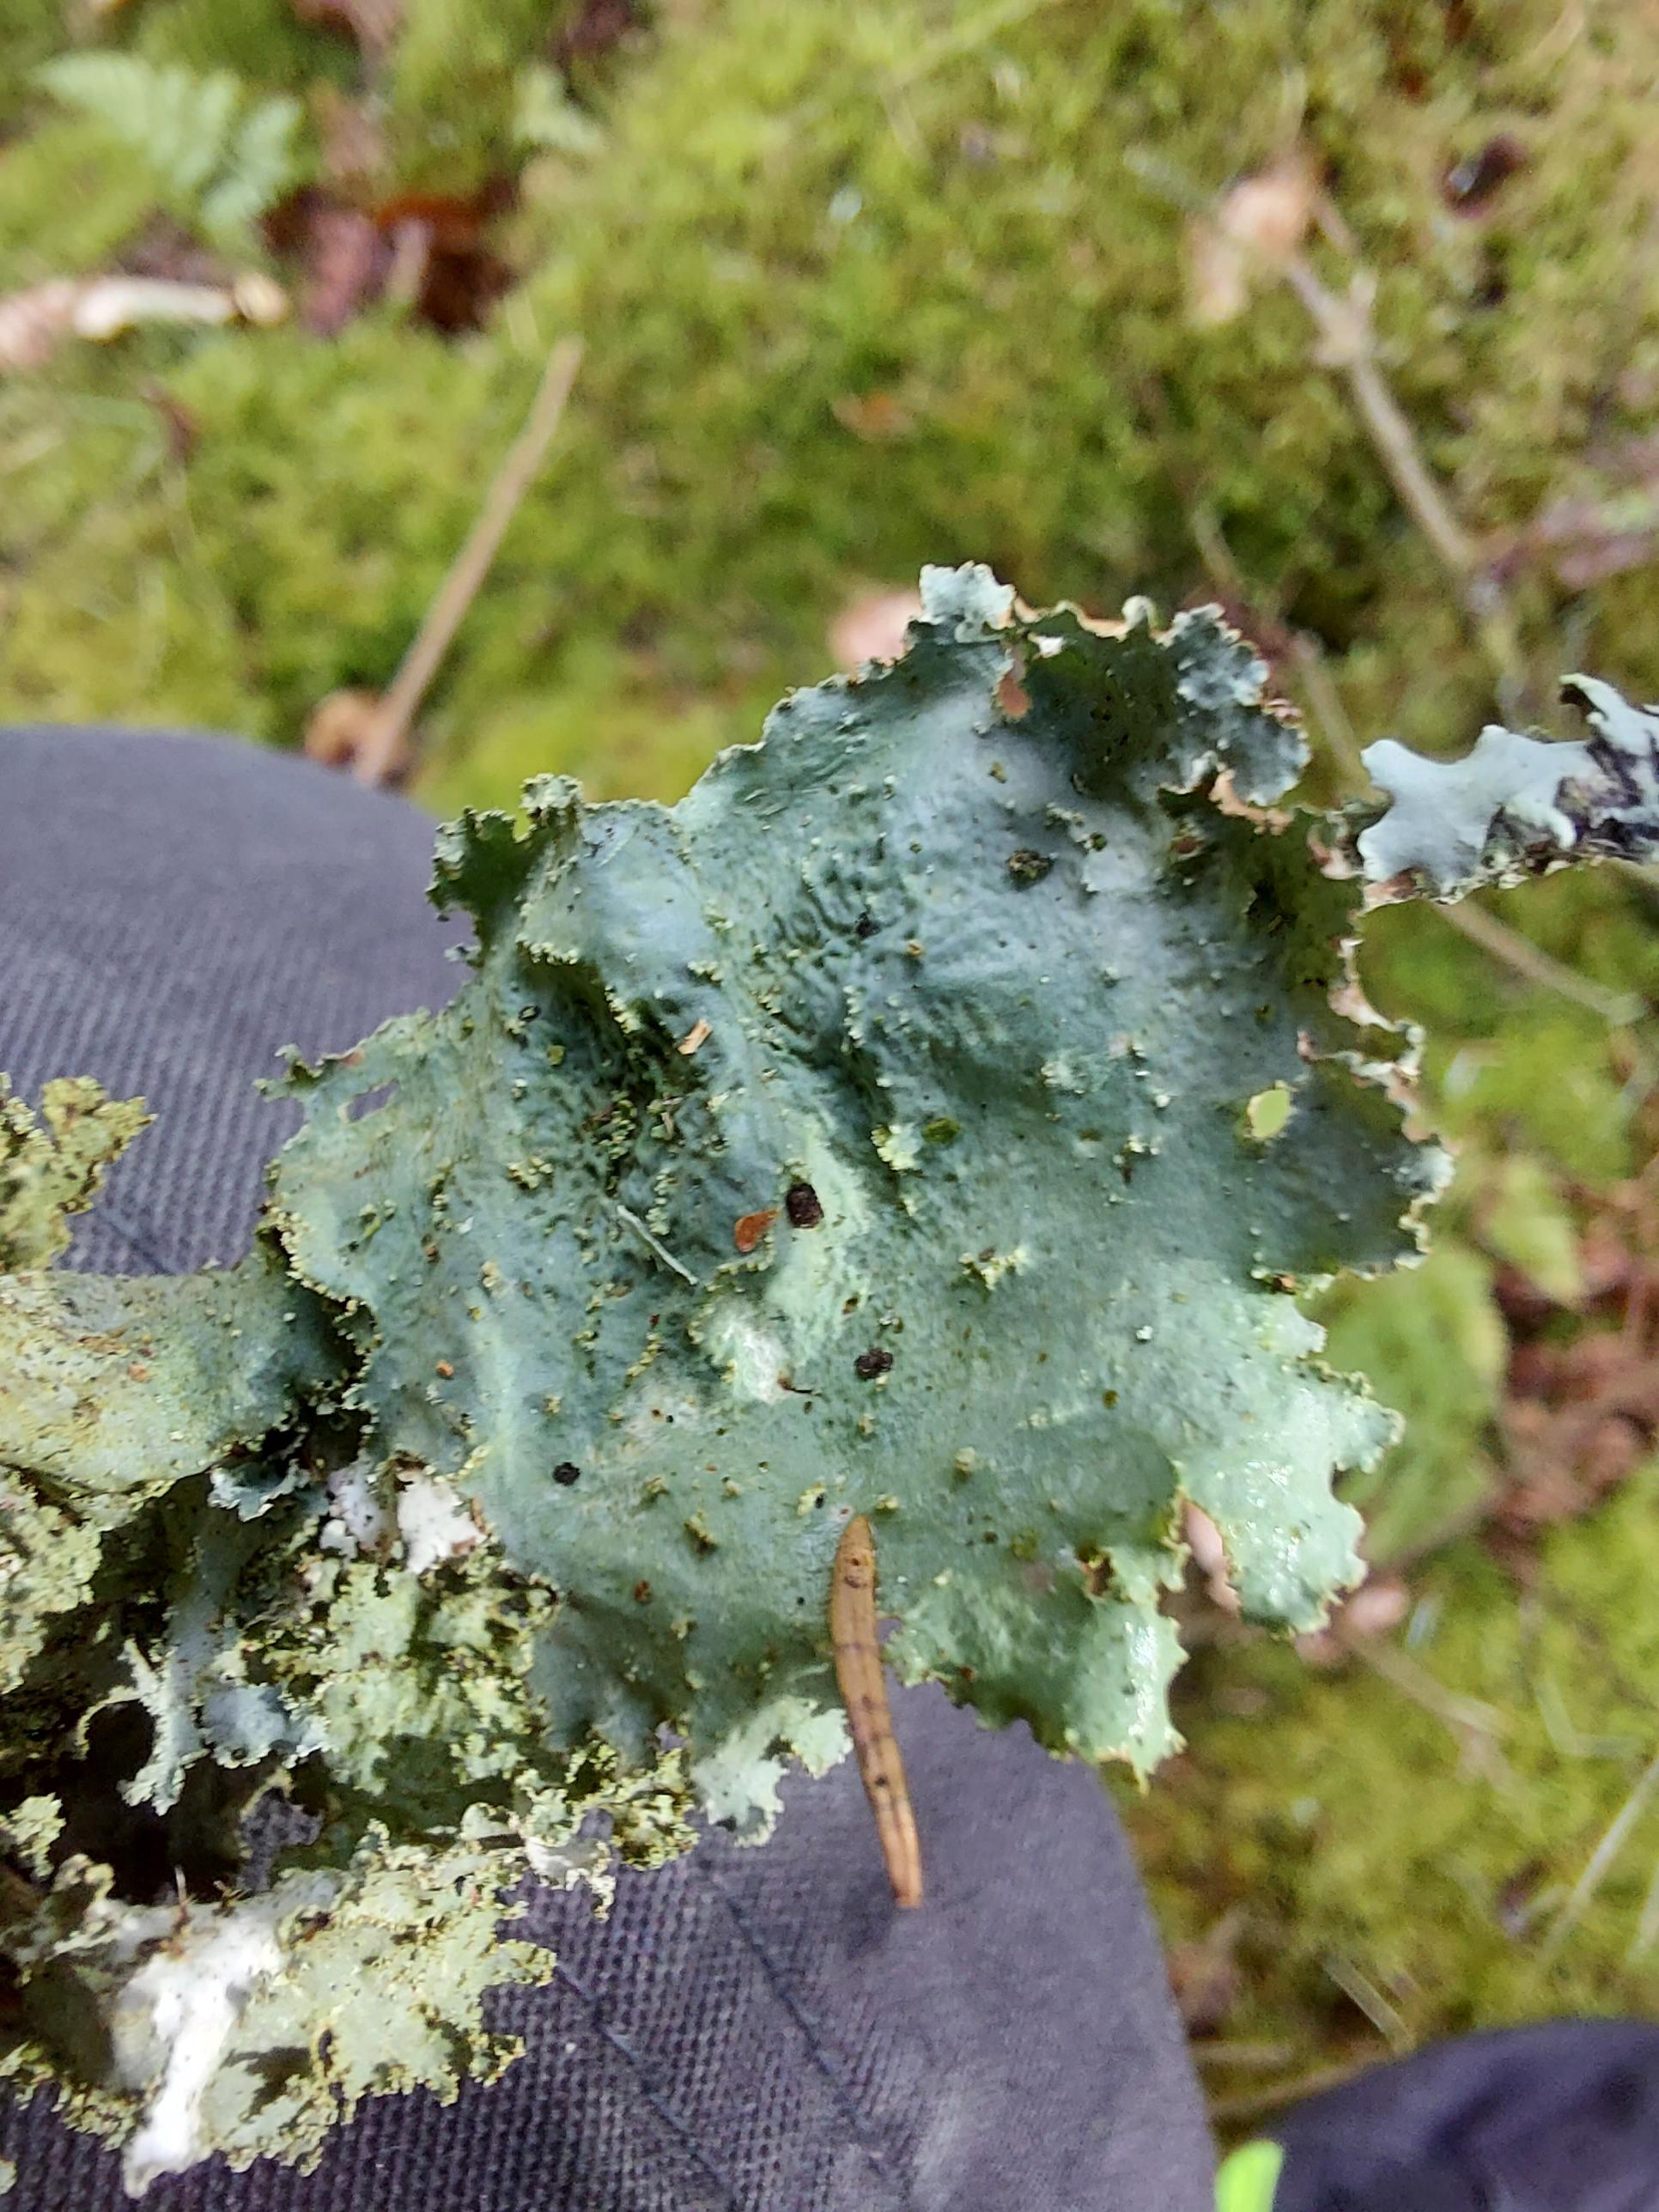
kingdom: Fungi
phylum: Ascomycota
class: Lecanoromycetes
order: Lecanorales
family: Parmeliaceae
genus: Platismatia
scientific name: Platismatia glauca
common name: blågrå papirlav
